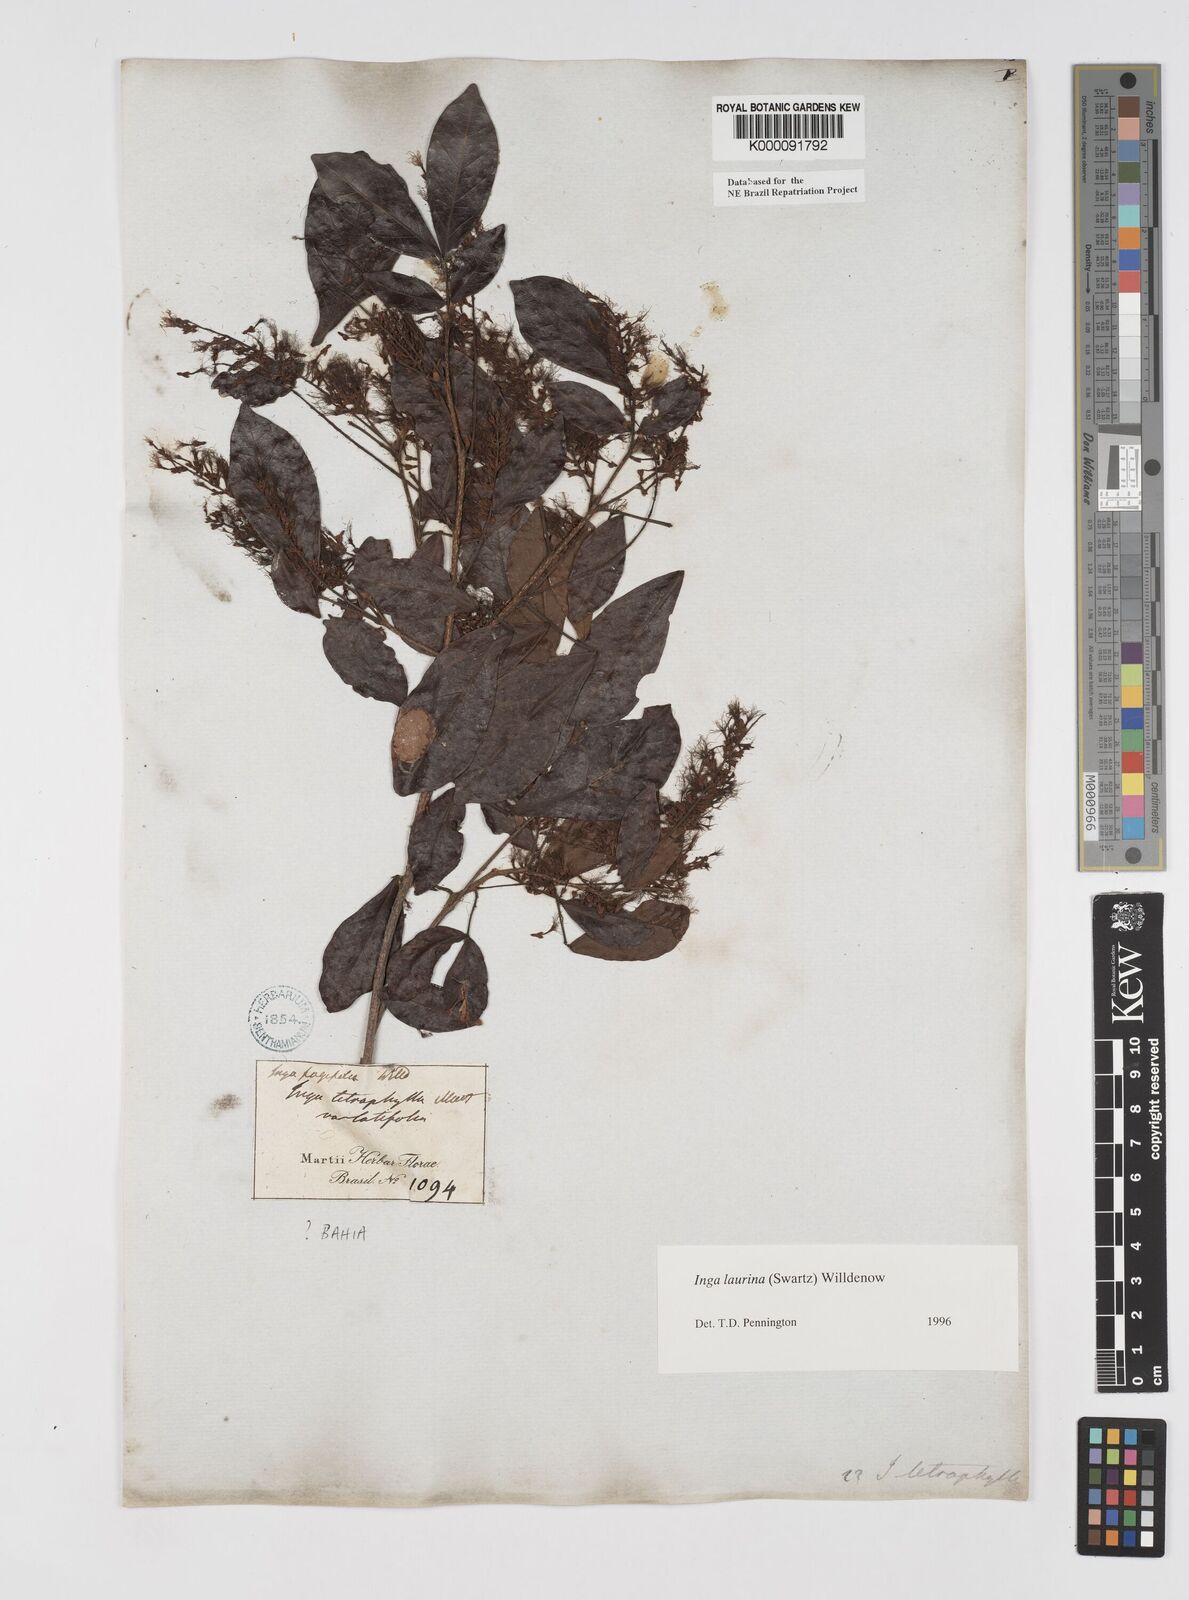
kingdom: Plantae
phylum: Tracheophyta
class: Magnoliopsida
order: Fabales
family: Fabaceae
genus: Inga
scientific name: Inga laurina
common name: Red wood
